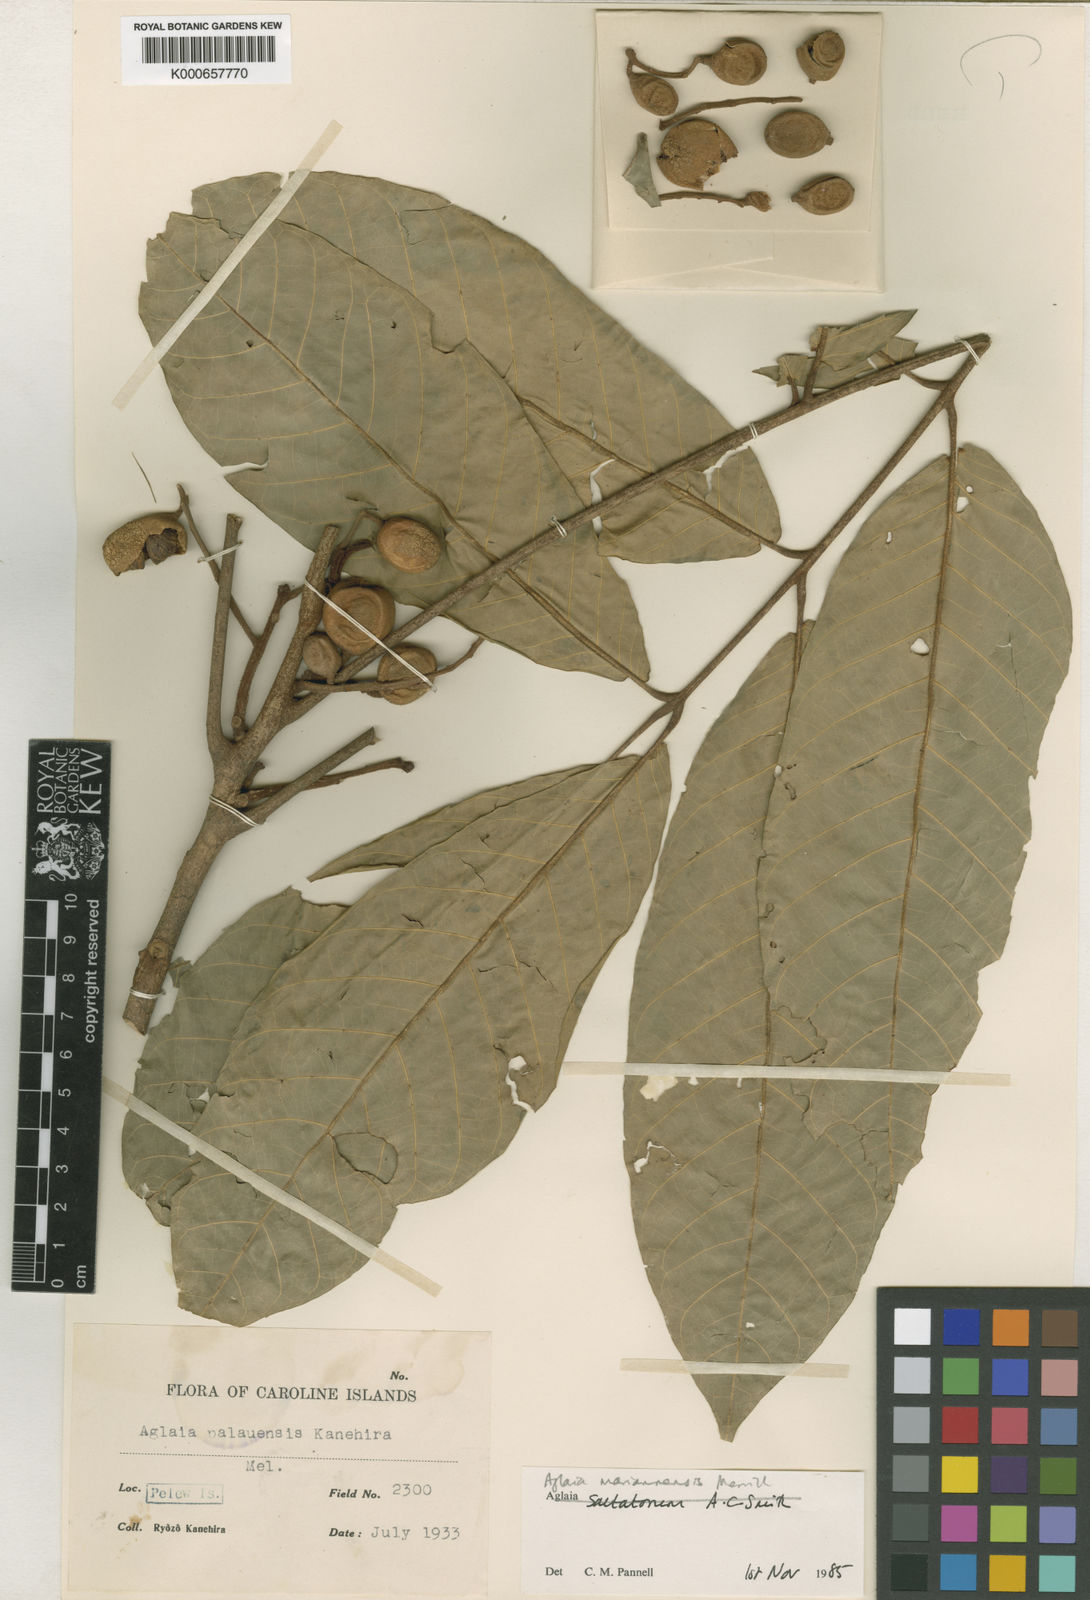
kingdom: Plantae
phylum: Tracheophyta
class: Magnoliopsida
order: Sapindales
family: Meliaceae
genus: Aglaia
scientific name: Aglaia mariannensis
